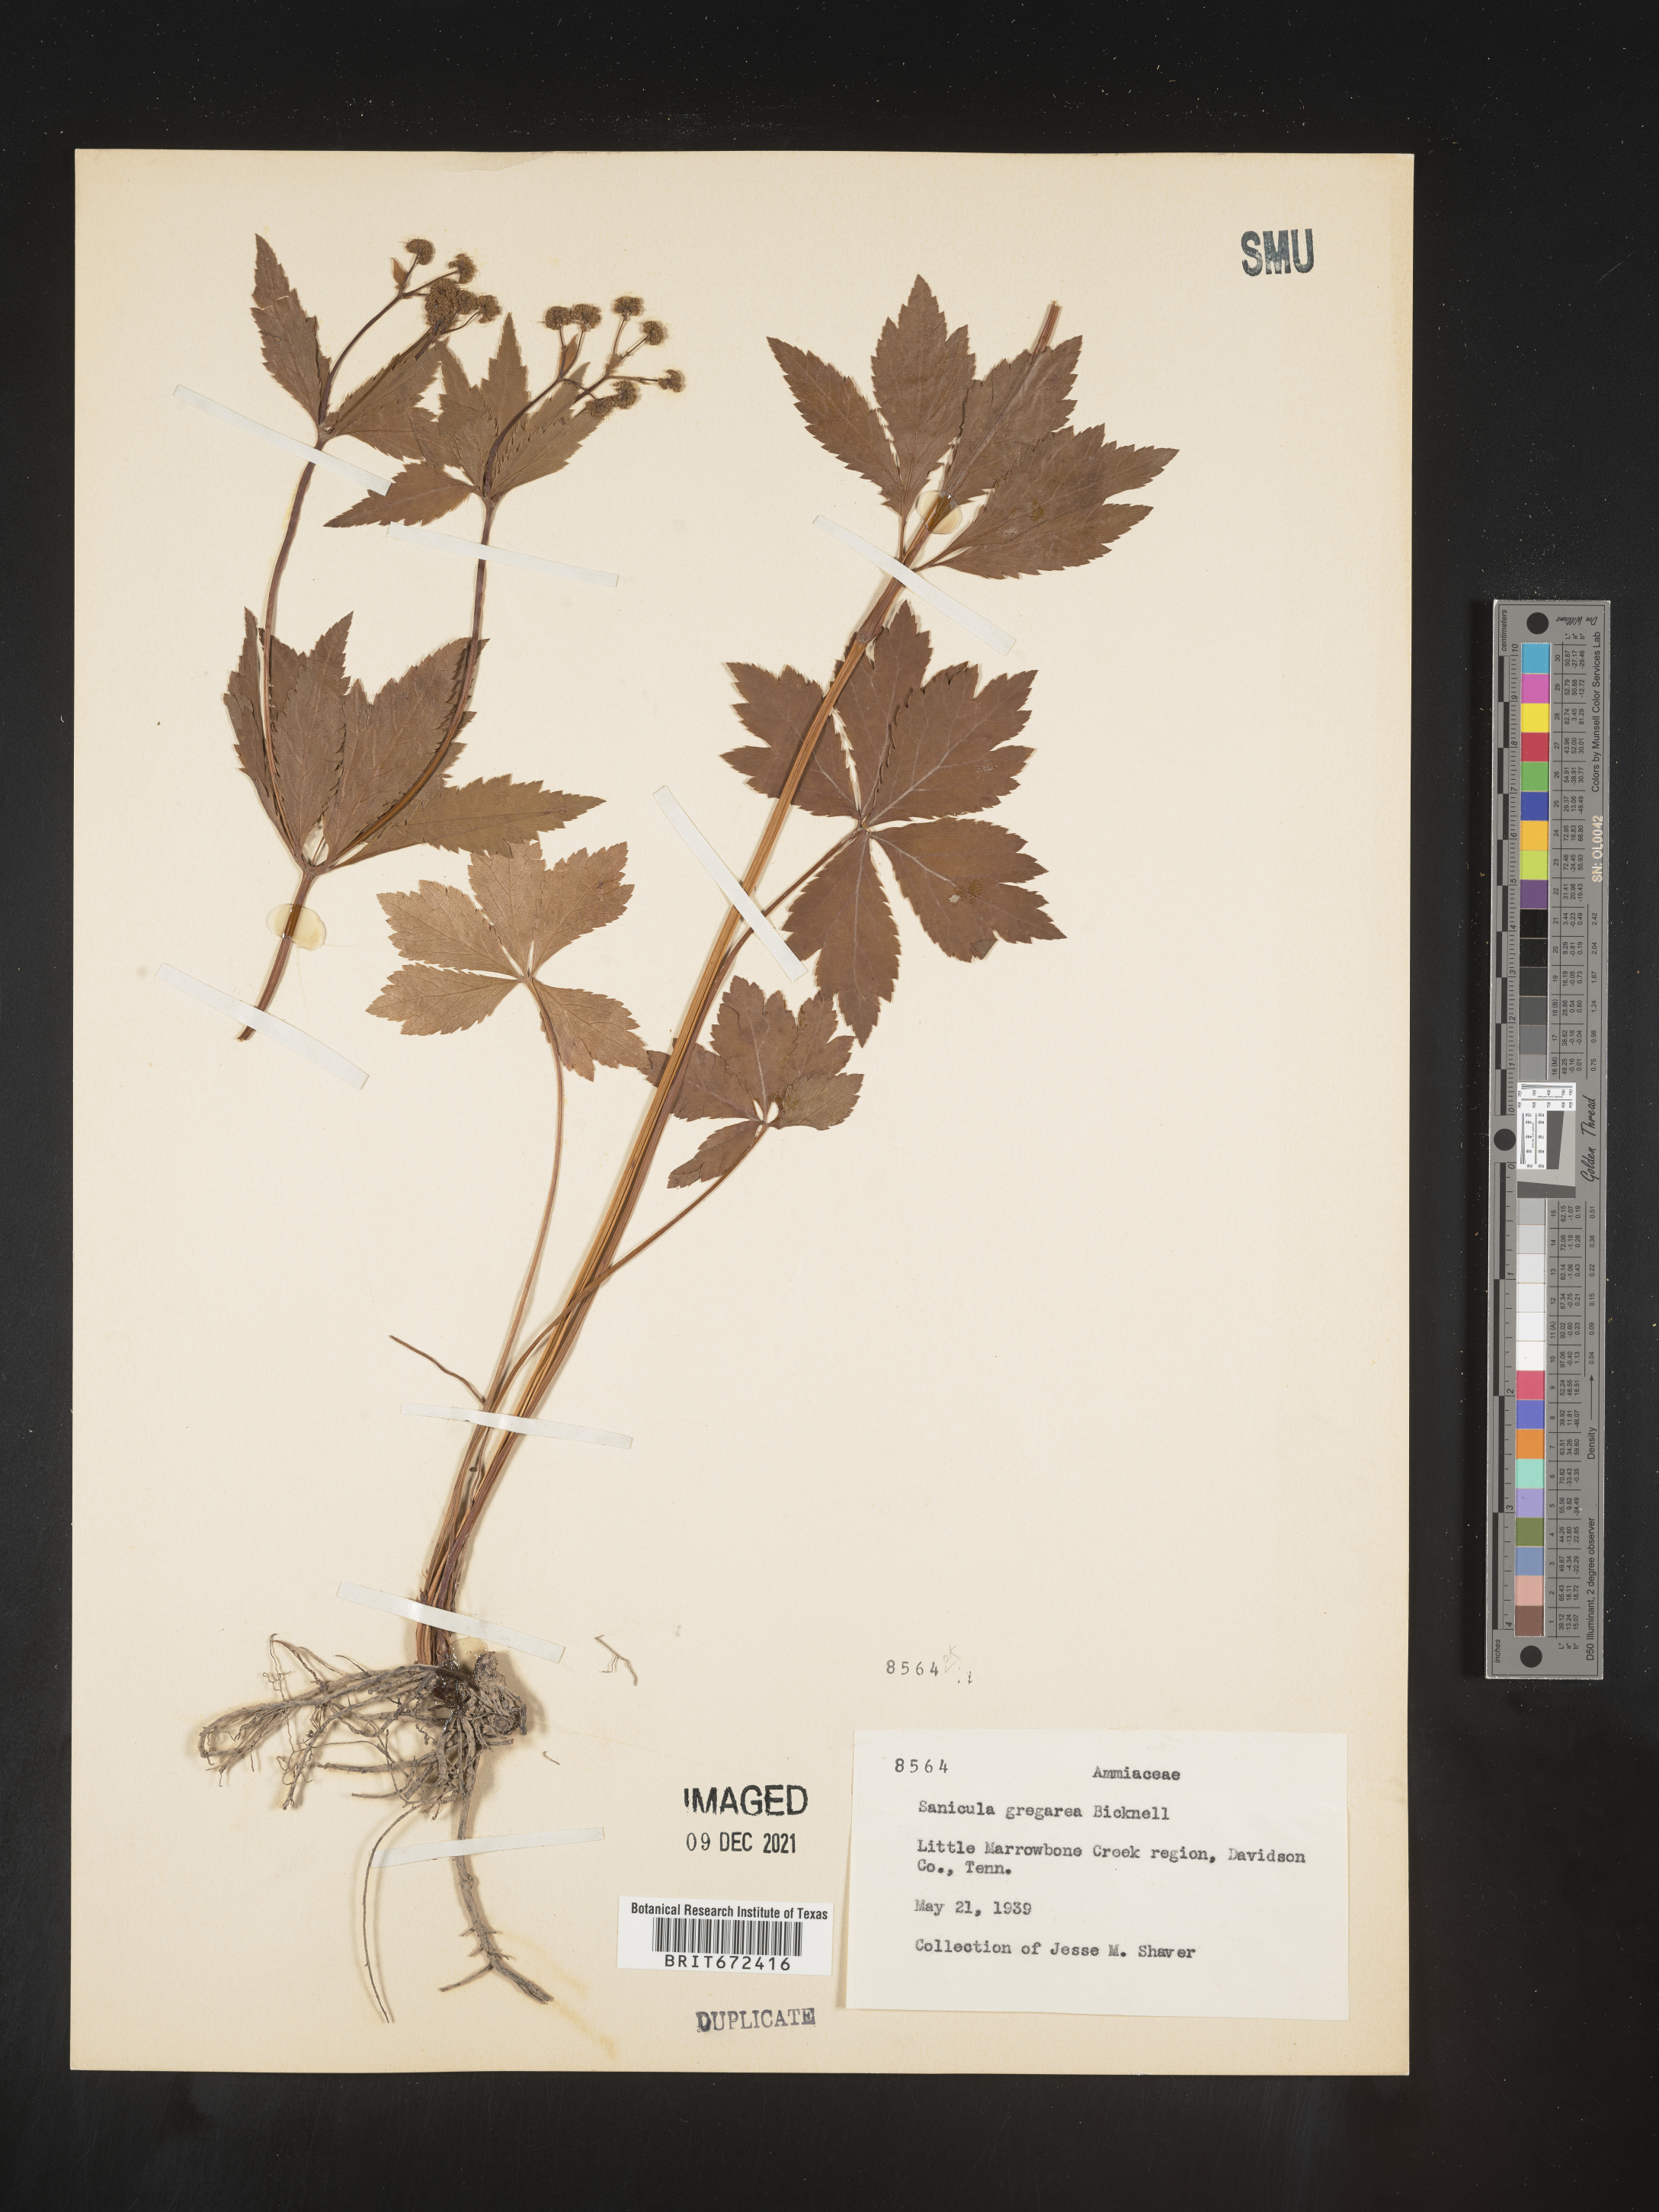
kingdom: Plantae
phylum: Tracheophyta
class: Magnoliopsida
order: Apiales
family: Apiaceae
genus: Sanicula
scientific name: Sanicula odorata
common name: Cluster sanicle
